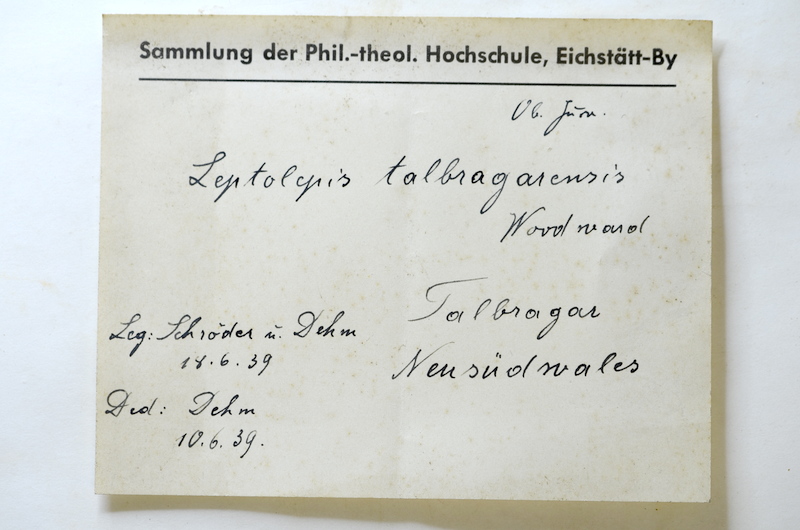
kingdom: Animalia
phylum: Chordata
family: Luisiellidae
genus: Cavenderichthys
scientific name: Cavenderichthys
